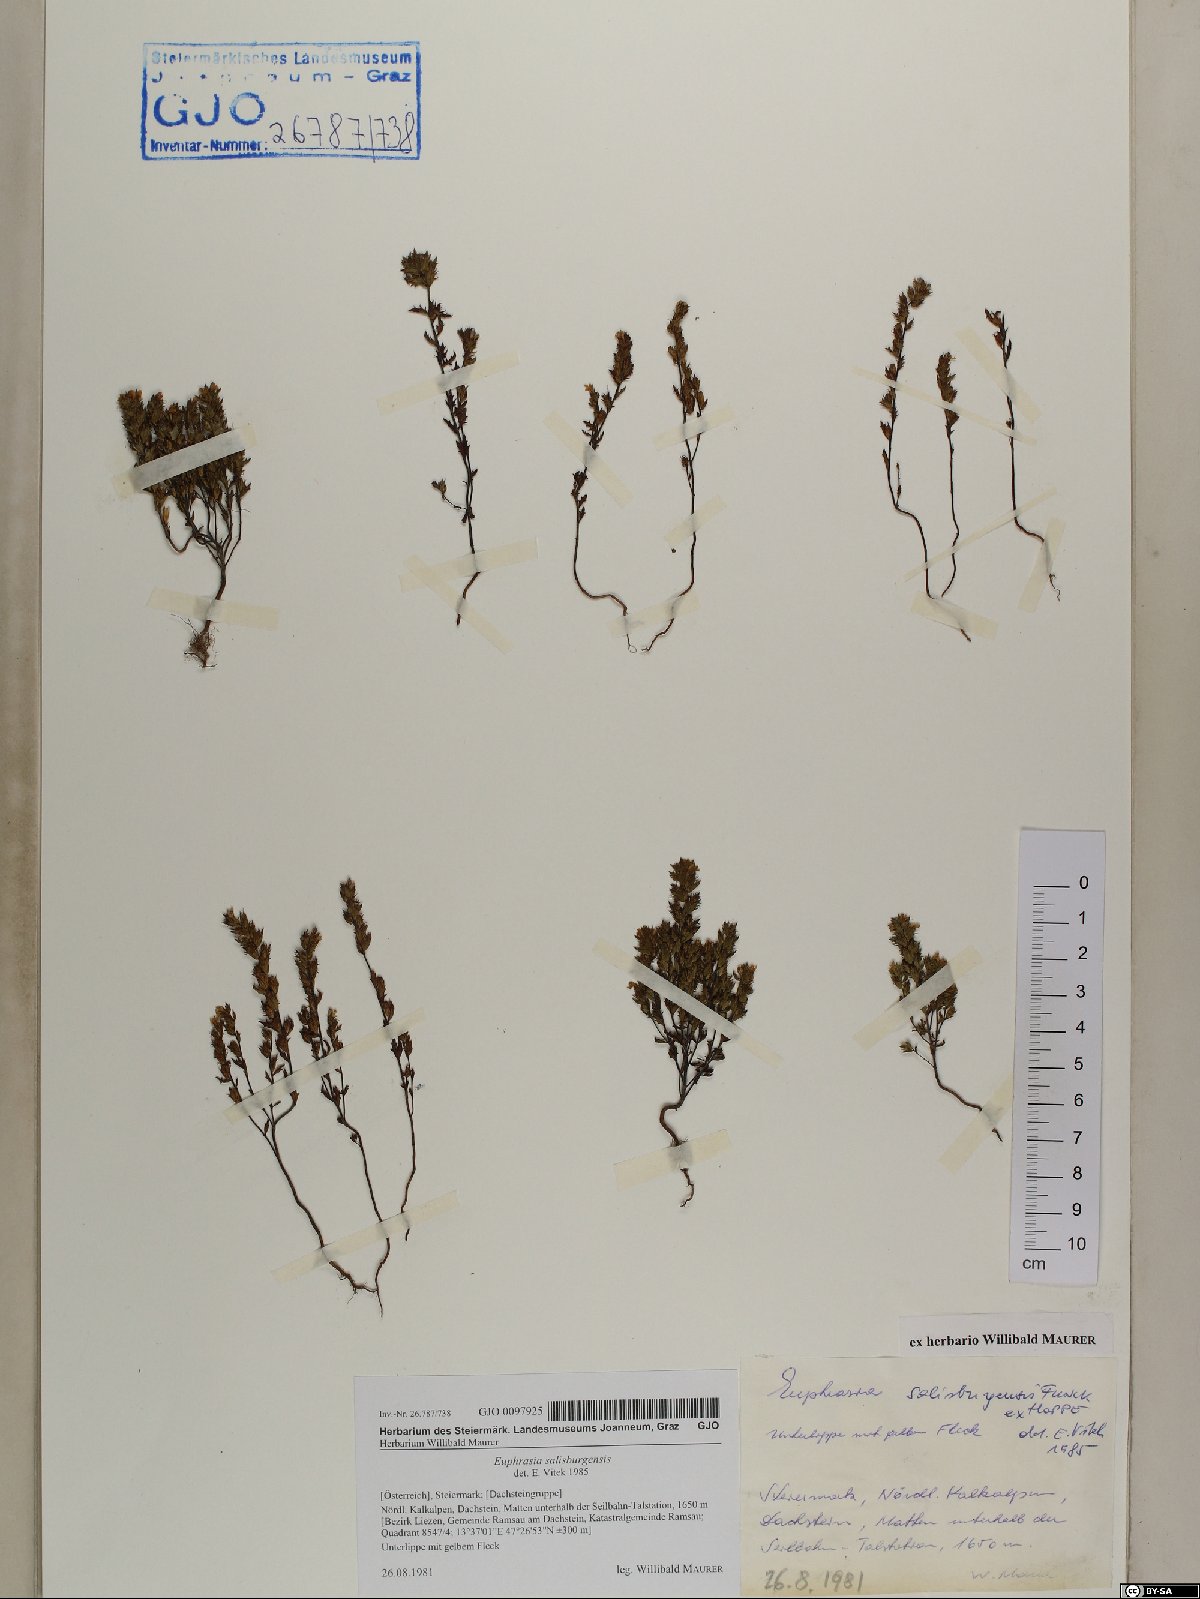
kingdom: Plantae
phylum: Tracheophyta
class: Magnoliopsida
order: Lamiales
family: Orobanchaceae
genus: Euphrasia
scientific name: Euphrasia salisburgensis
